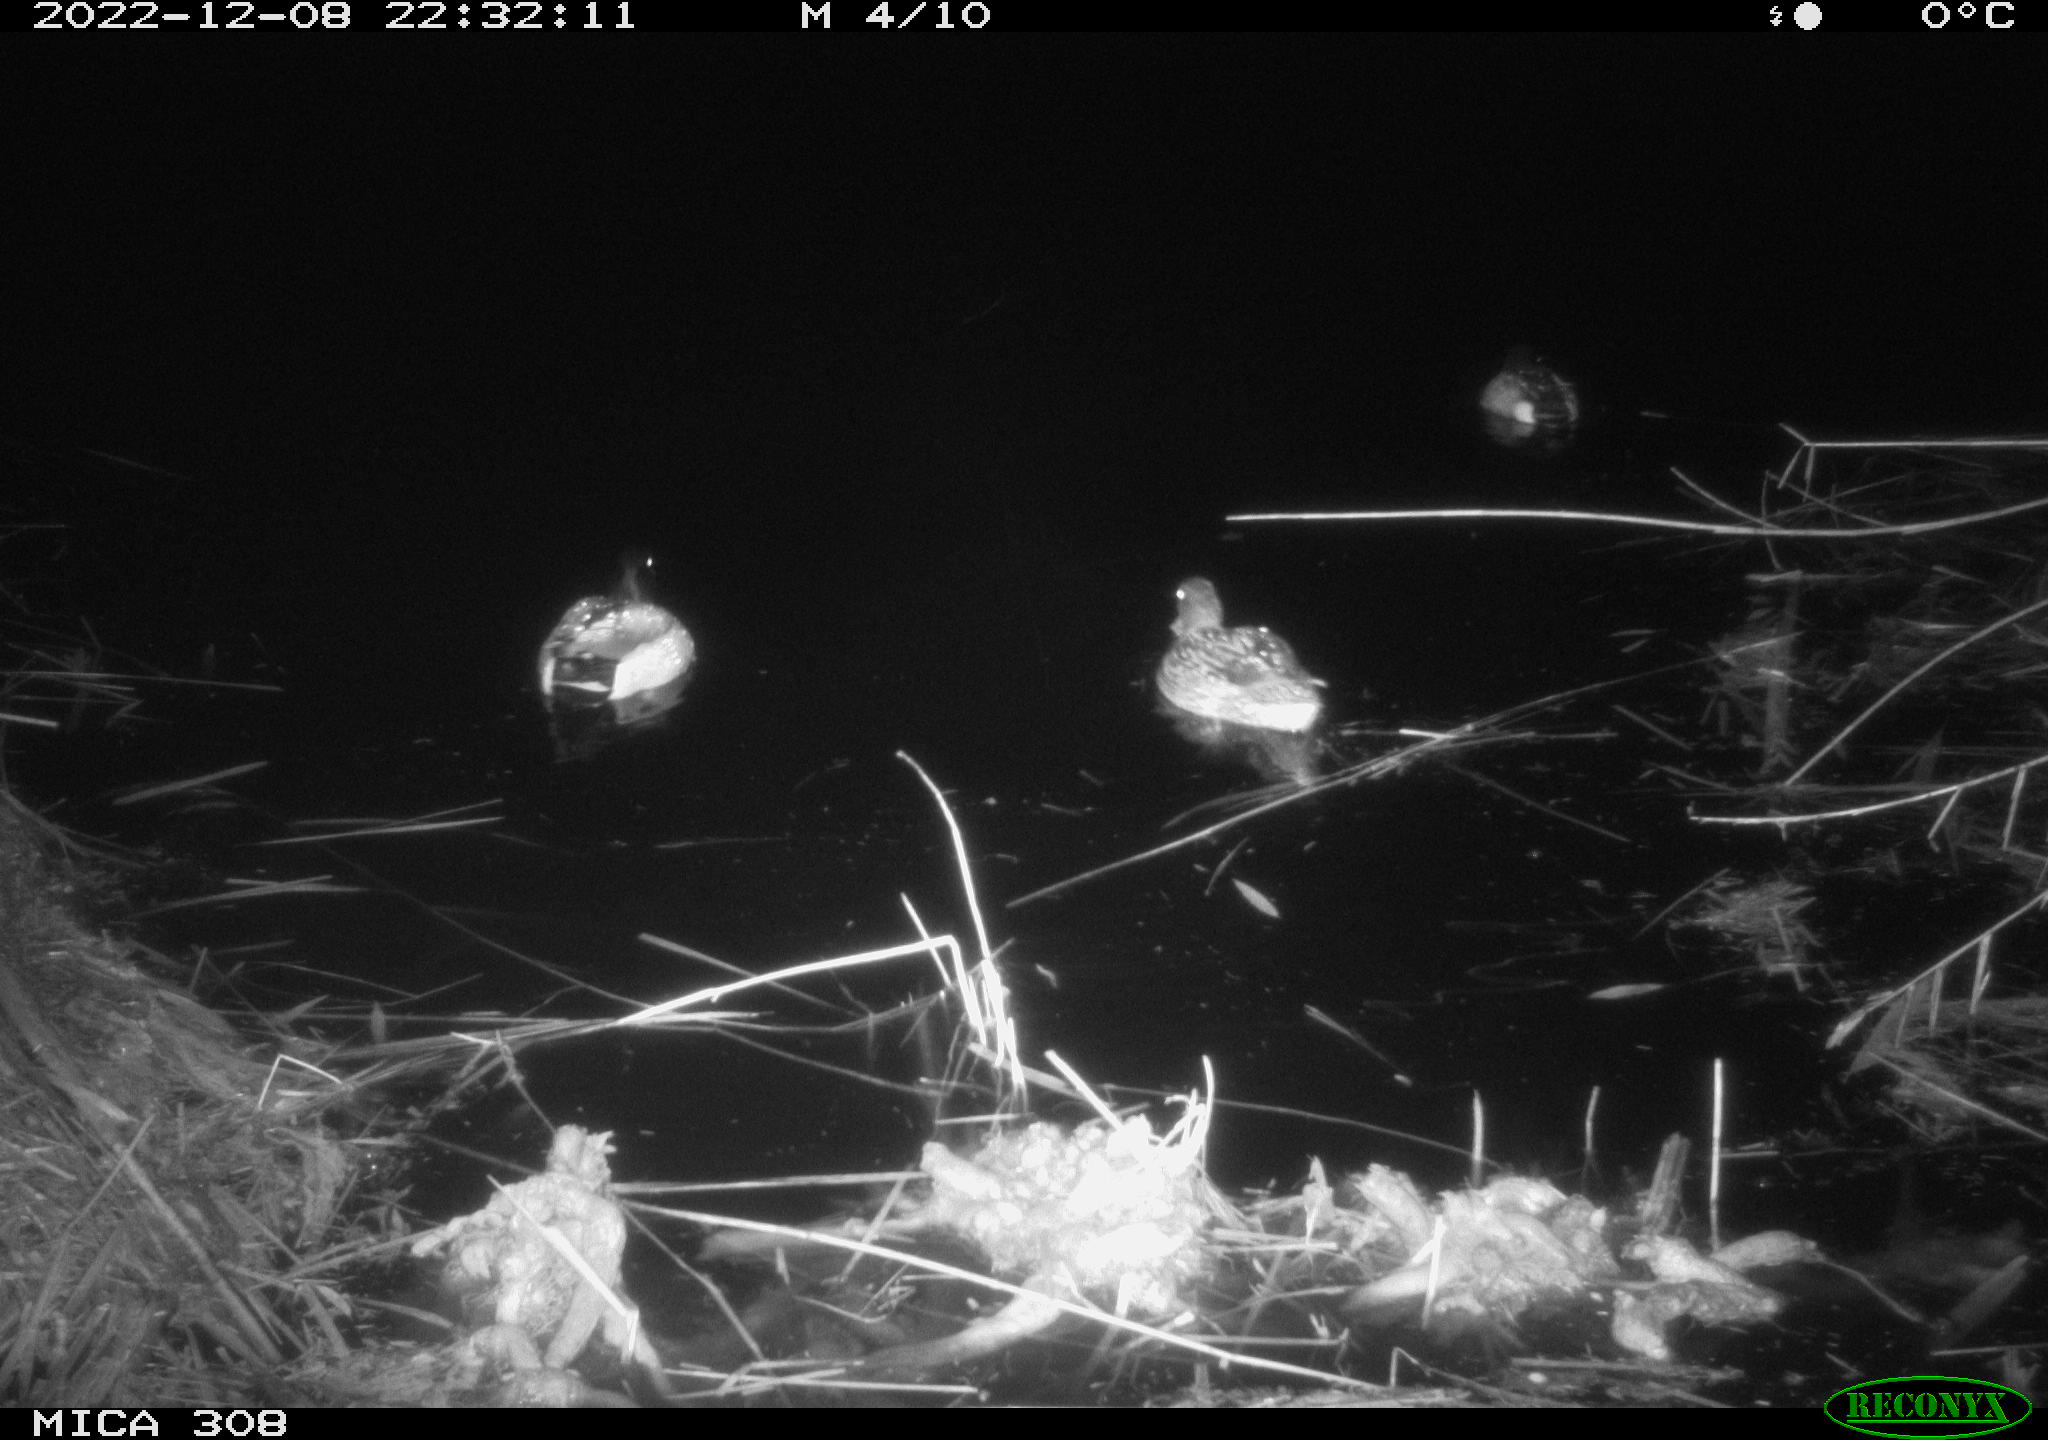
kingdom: Animalia
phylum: Chordata
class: Aves
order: Anseriformes
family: Anatidae
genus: Anas
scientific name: Anas
